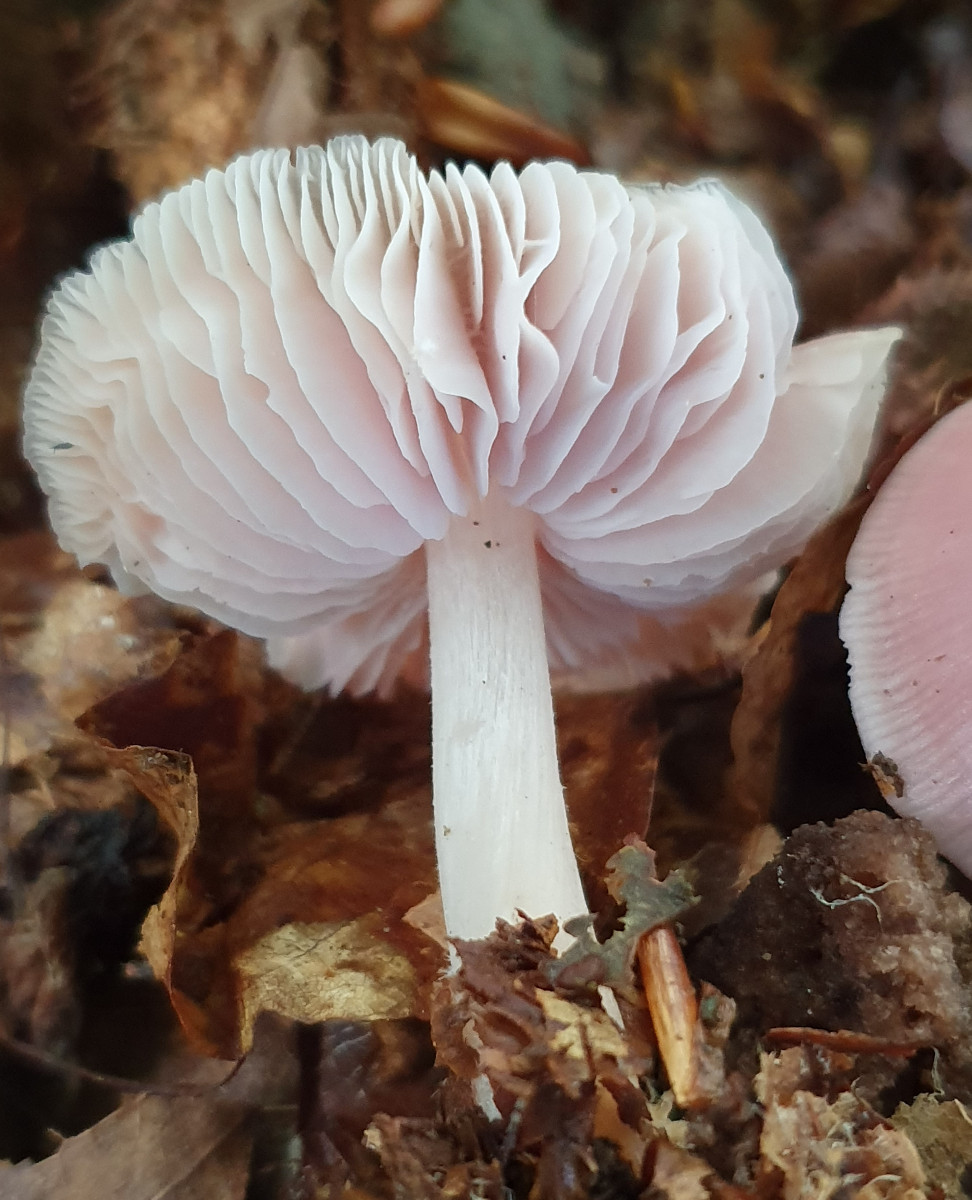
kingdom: Fungi
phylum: Basidiomycota
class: Agaricomycetes
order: Agaricales
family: Mycenaceae
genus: Mycena
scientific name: Mycena rosea
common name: rosa huesvamp
